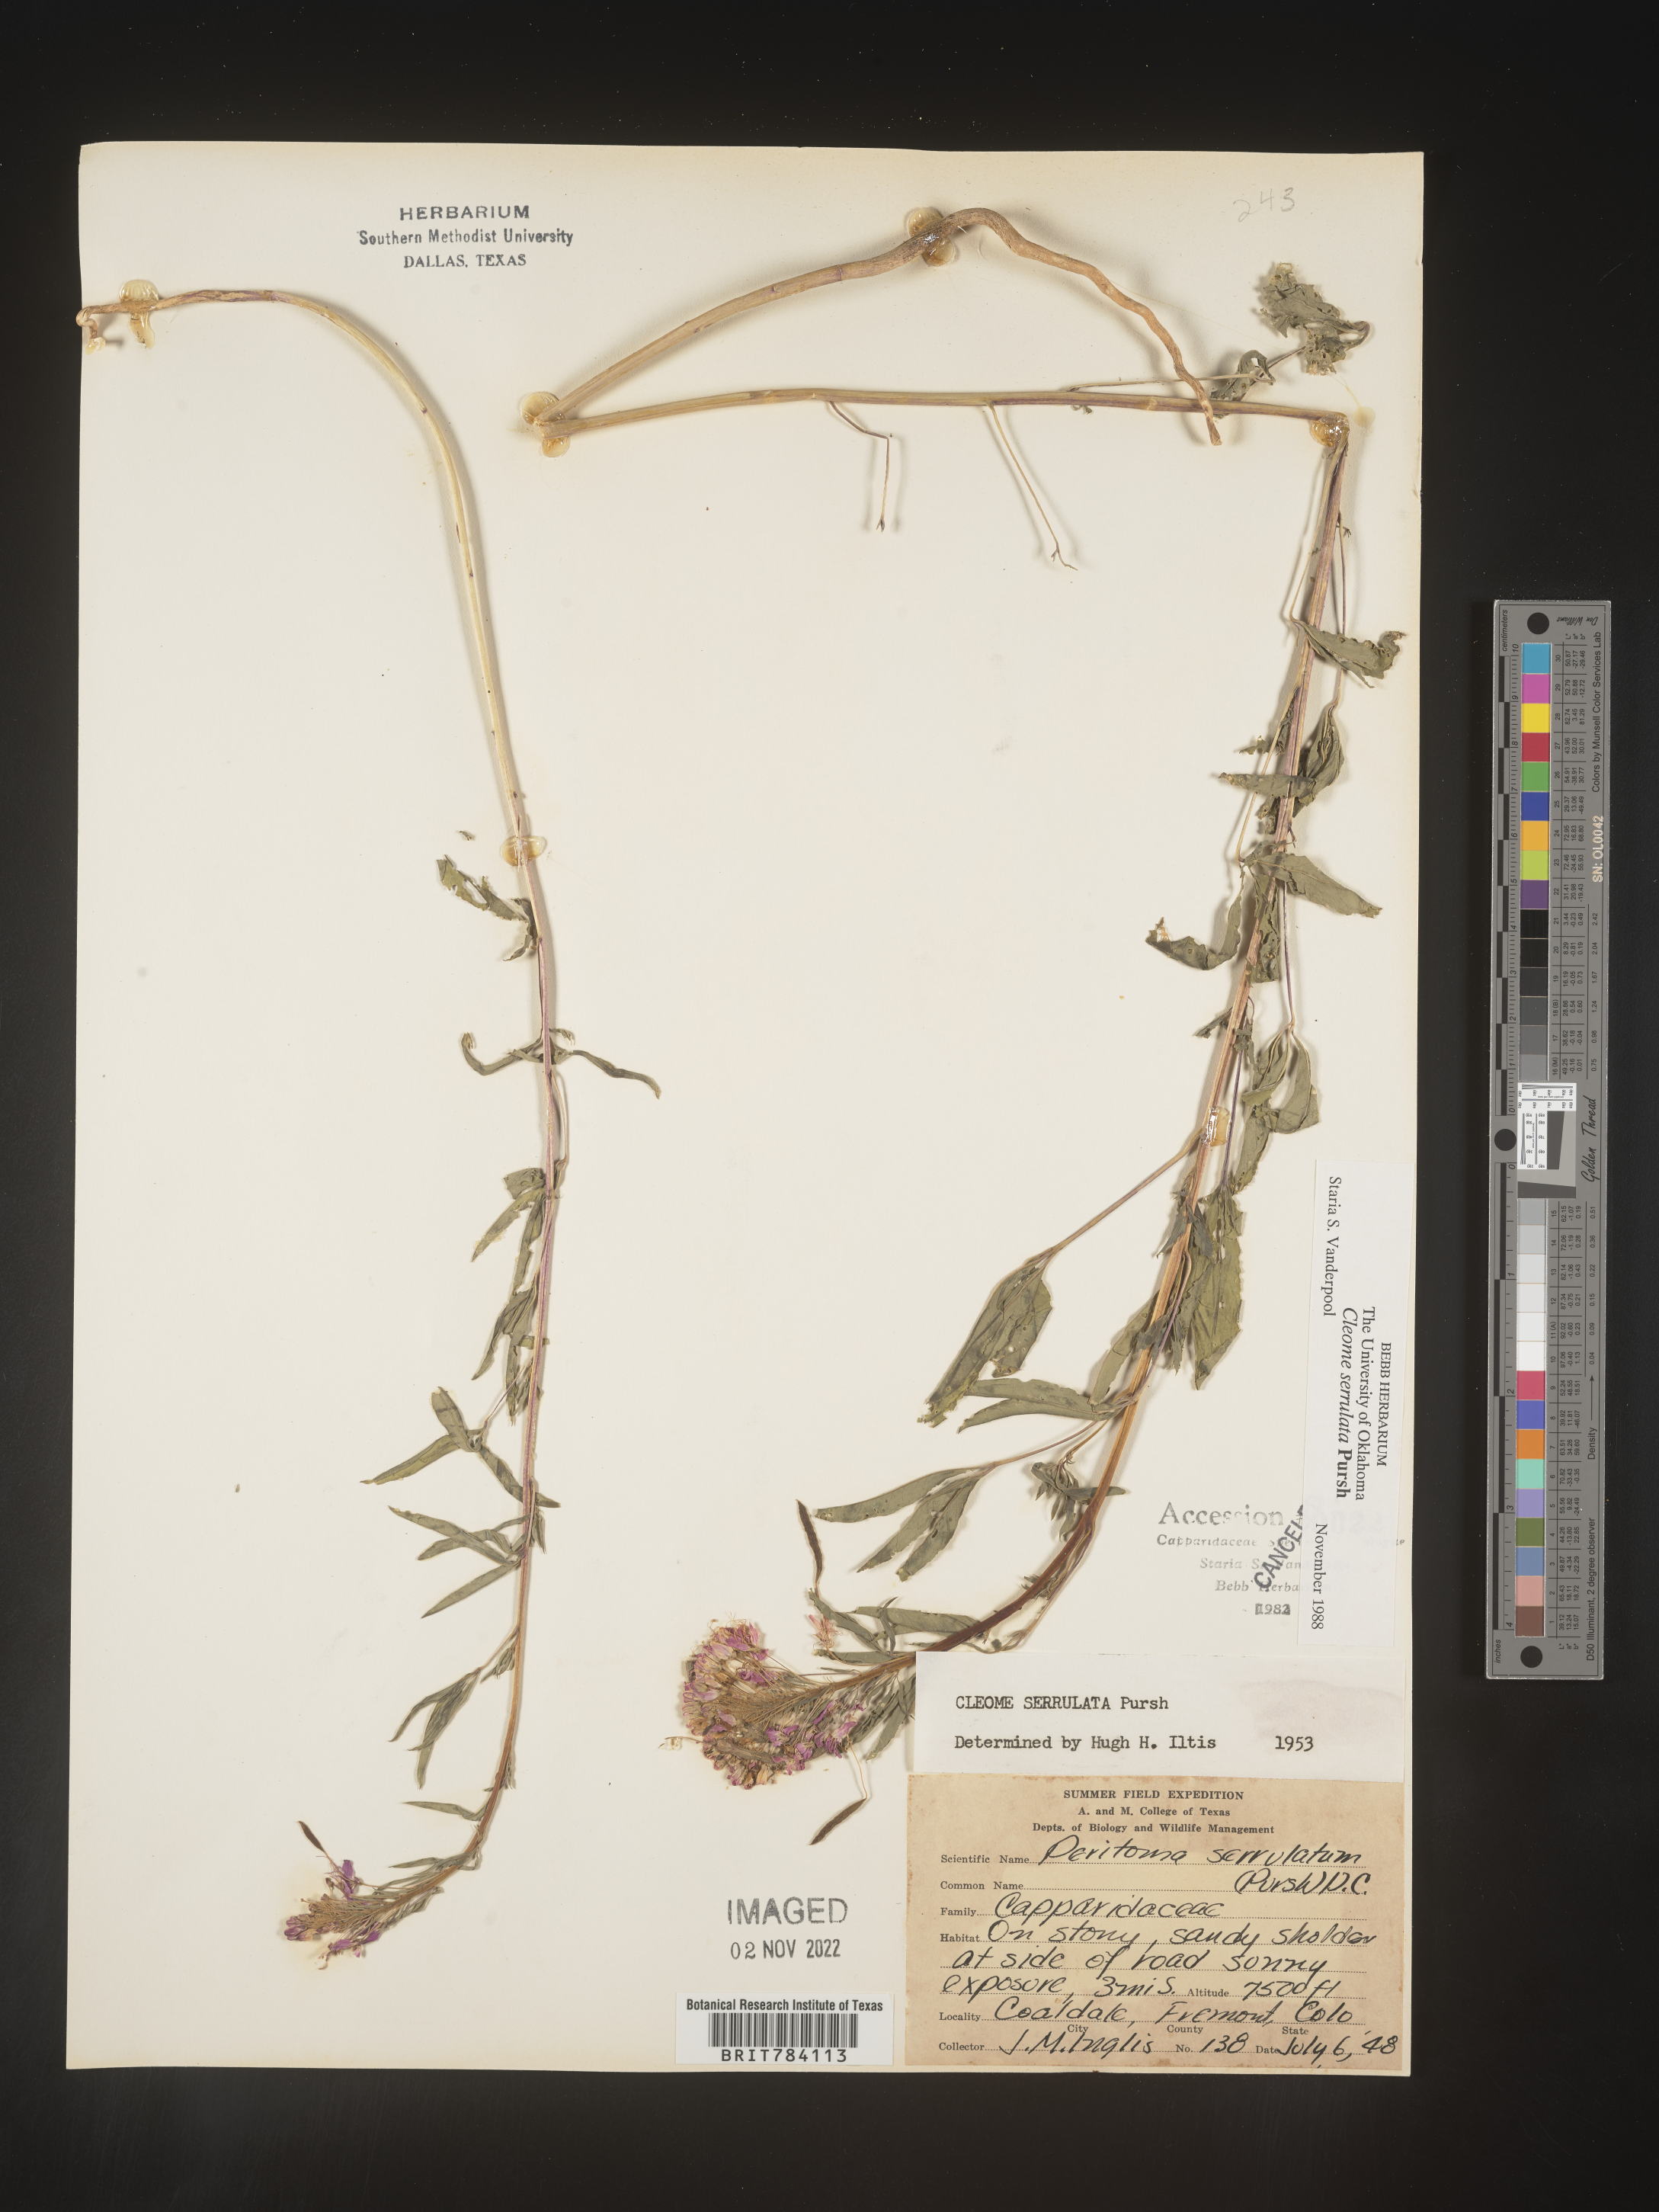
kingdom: Plantae
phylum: Tracheophyta
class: Magnoliopsida
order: Brassicales
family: Cleomaceae
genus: Cleomella
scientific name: Cleomella serrulata
